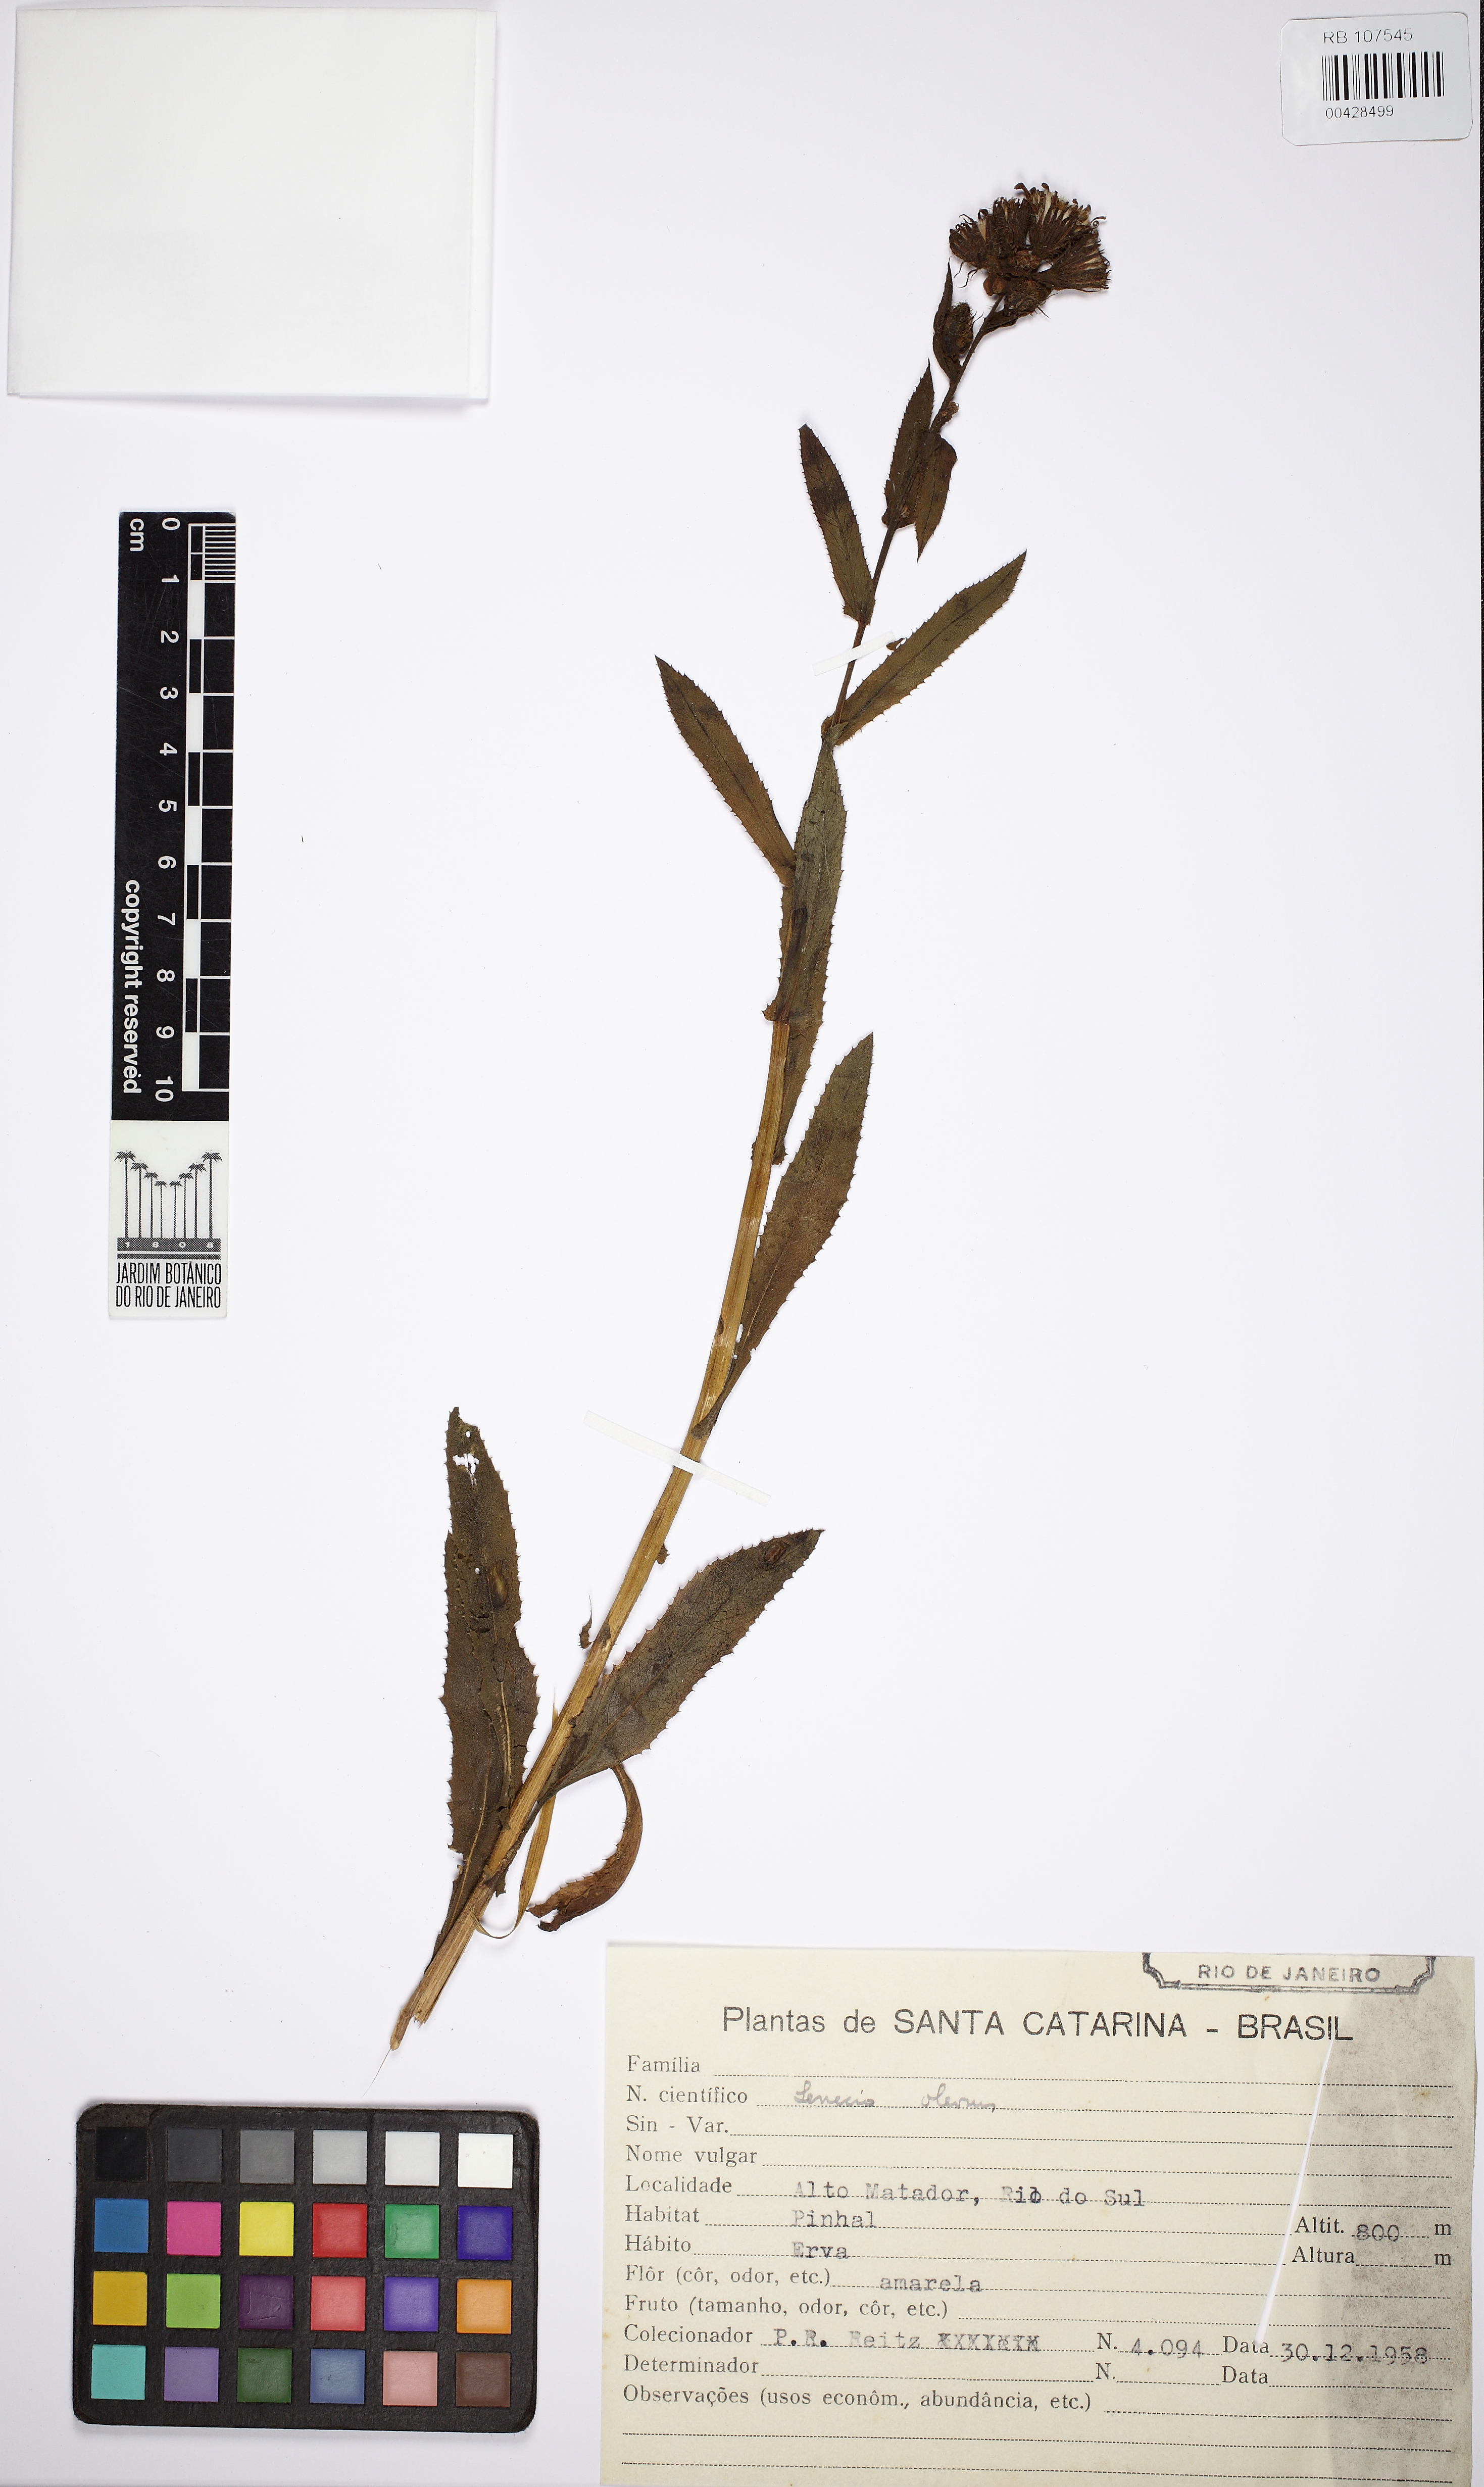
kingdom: Plantae
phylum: Tracheophyta
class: Magnoliopsida
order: Asterales
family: Asteraceae
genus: Senecio
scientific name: Senecio oleosus
